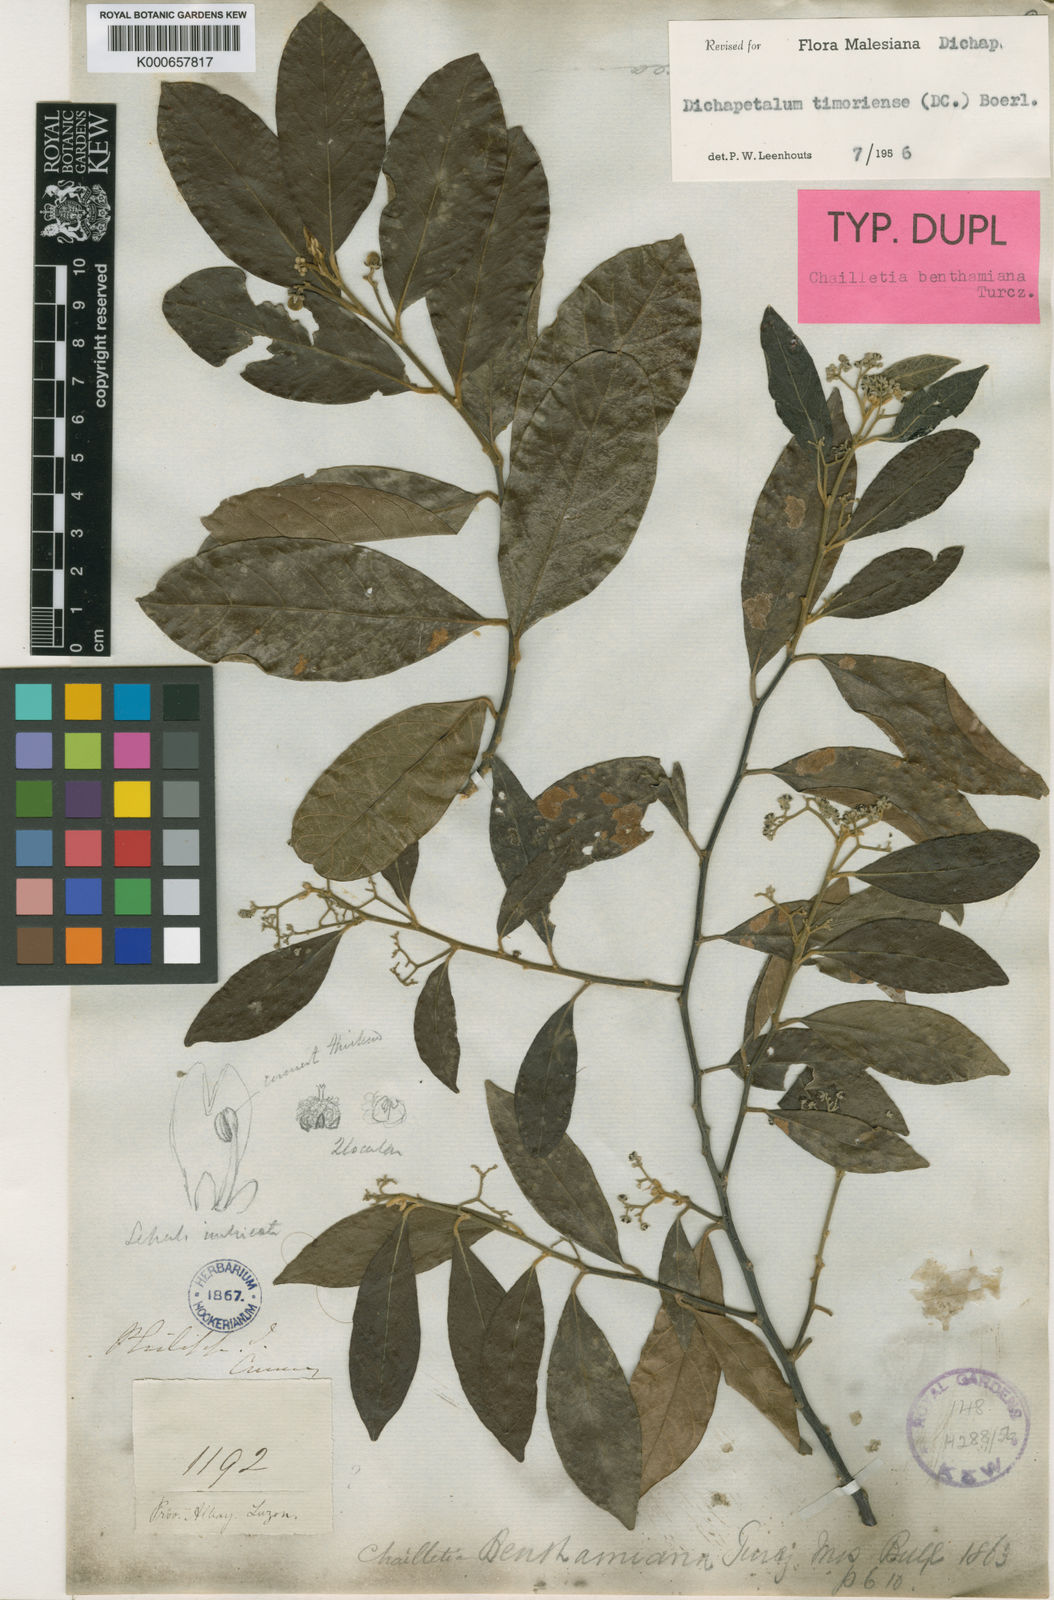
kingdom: Plantae
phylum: Tracheophyta
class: Magnoliopsida
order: Malpighiales
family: Dichapetalaceae
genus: Dichapetalum
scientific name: Dichapetalum timoriense
